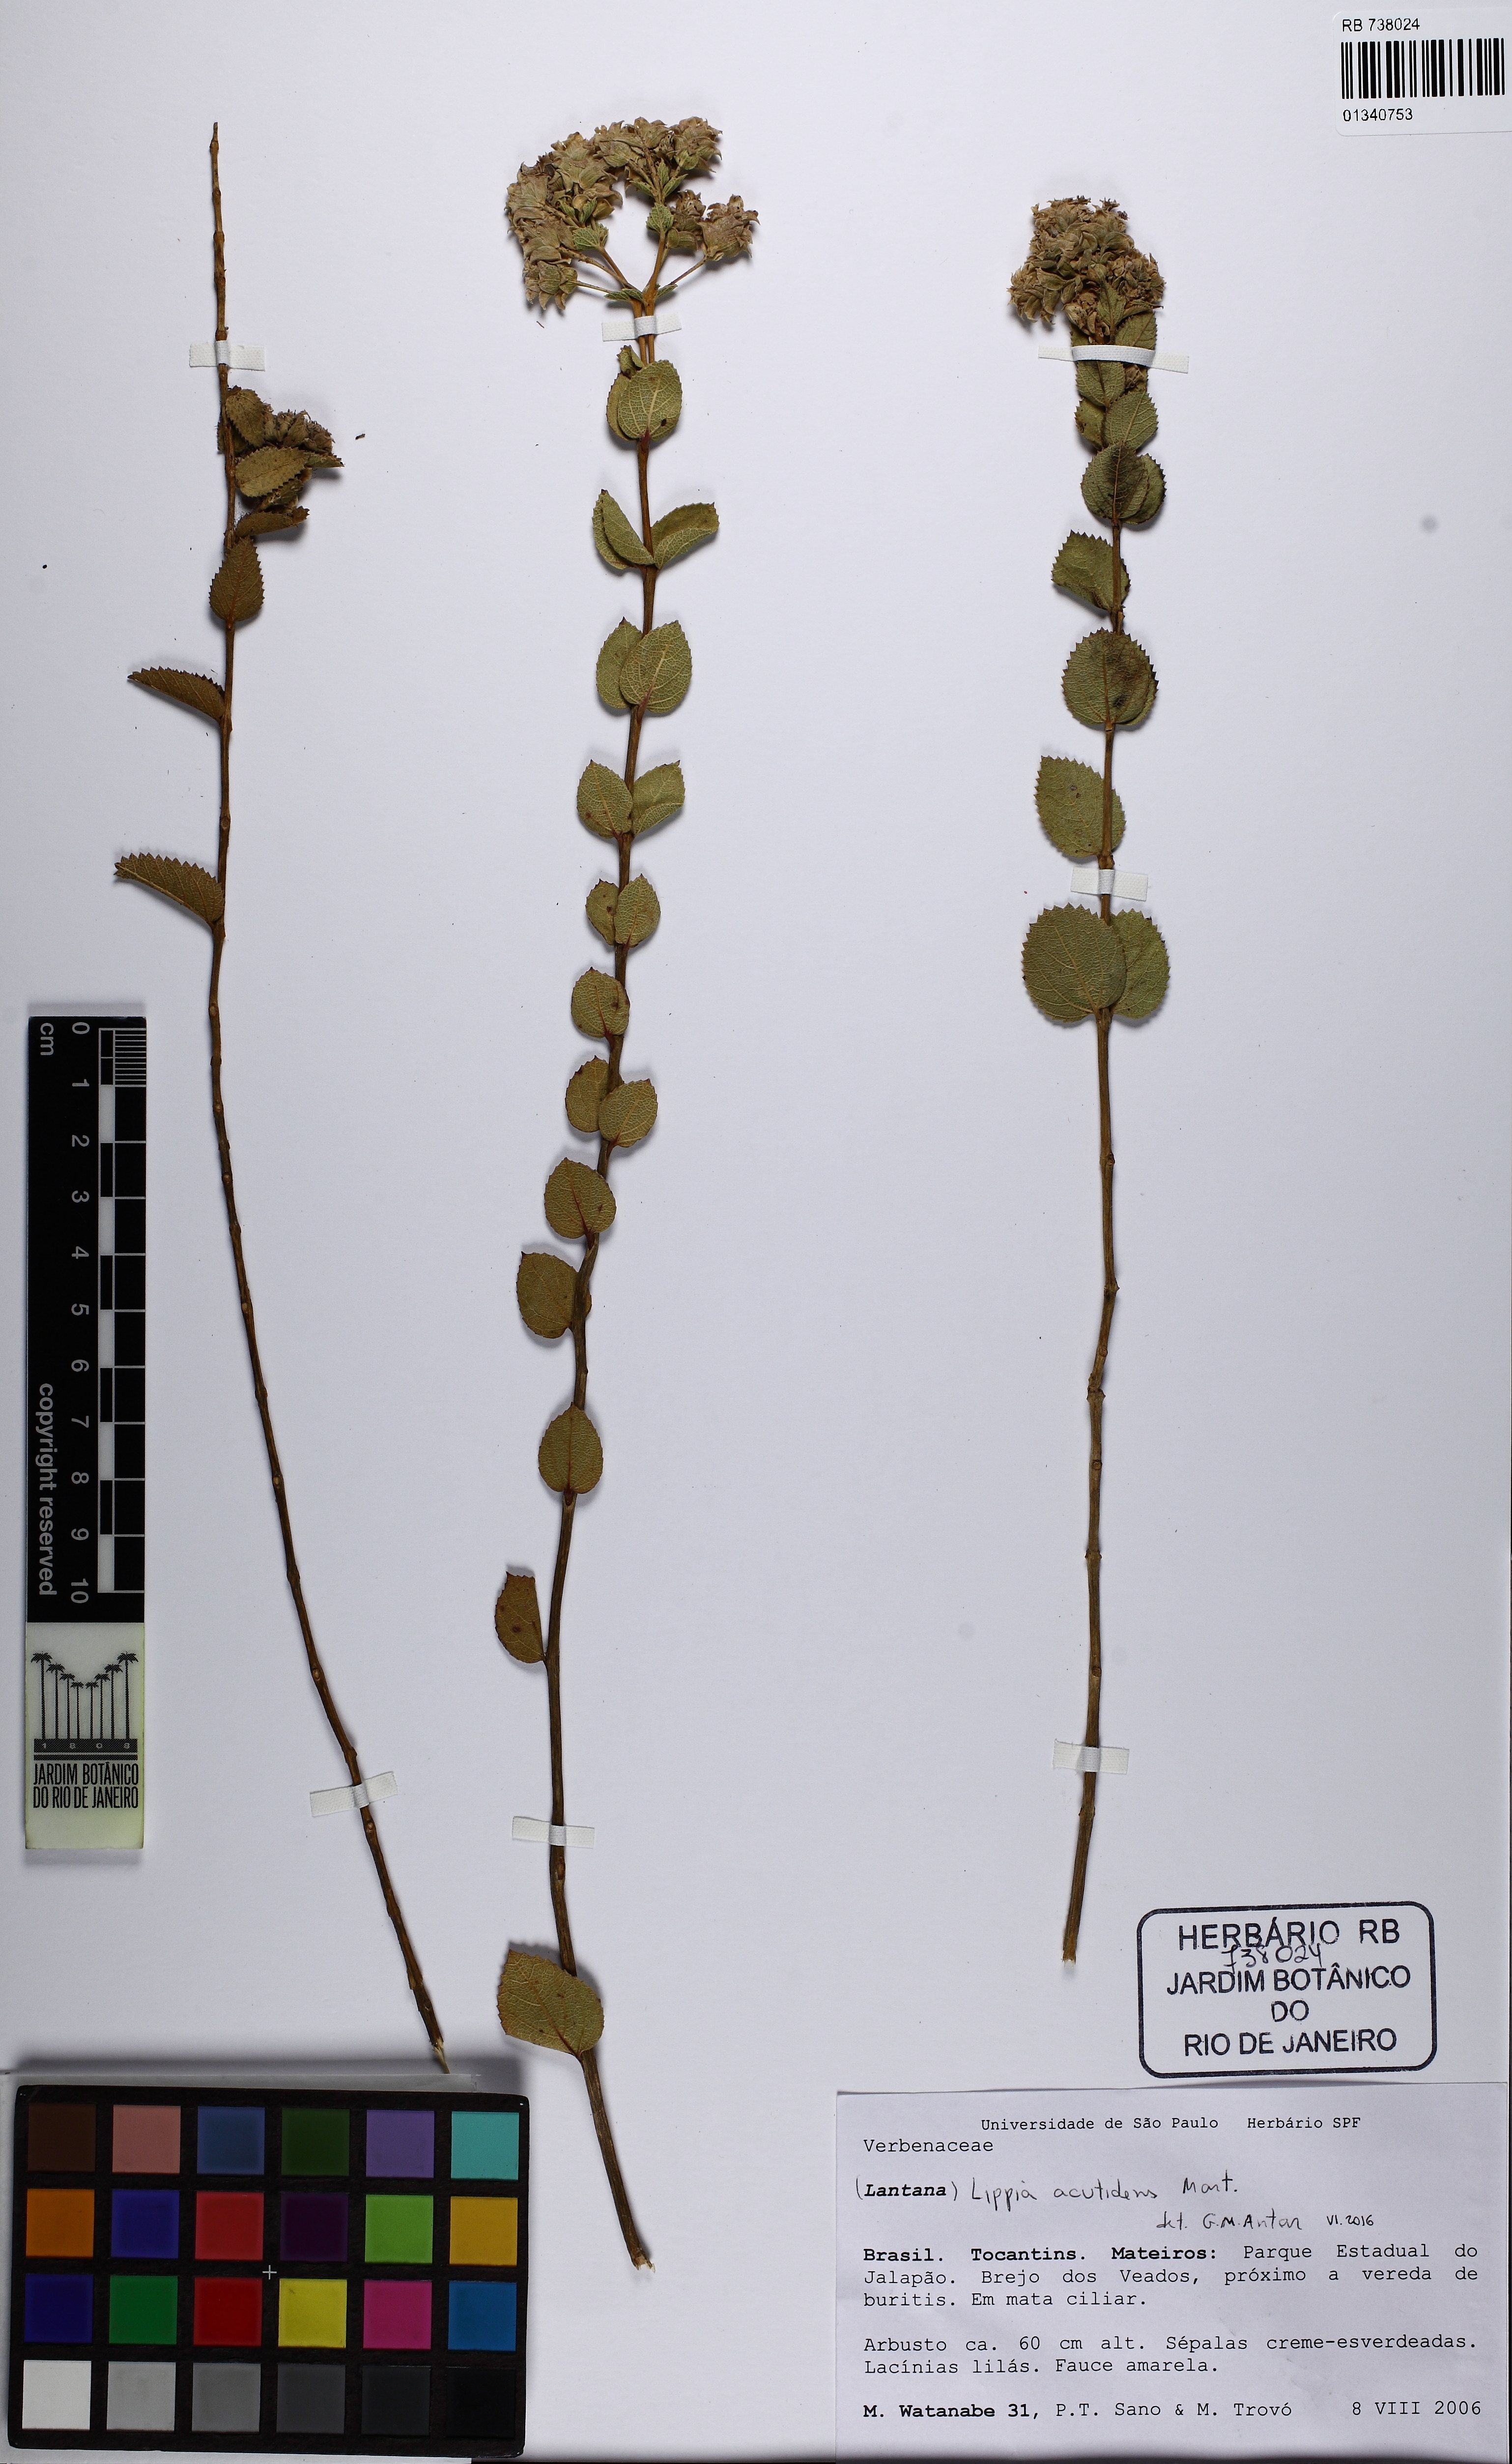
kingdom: Plantae
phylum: Tracheophyta
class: Magnoliopsida
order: Lamiales
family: Verbenaceae
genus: Lippia
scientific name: Lippia acutidens
